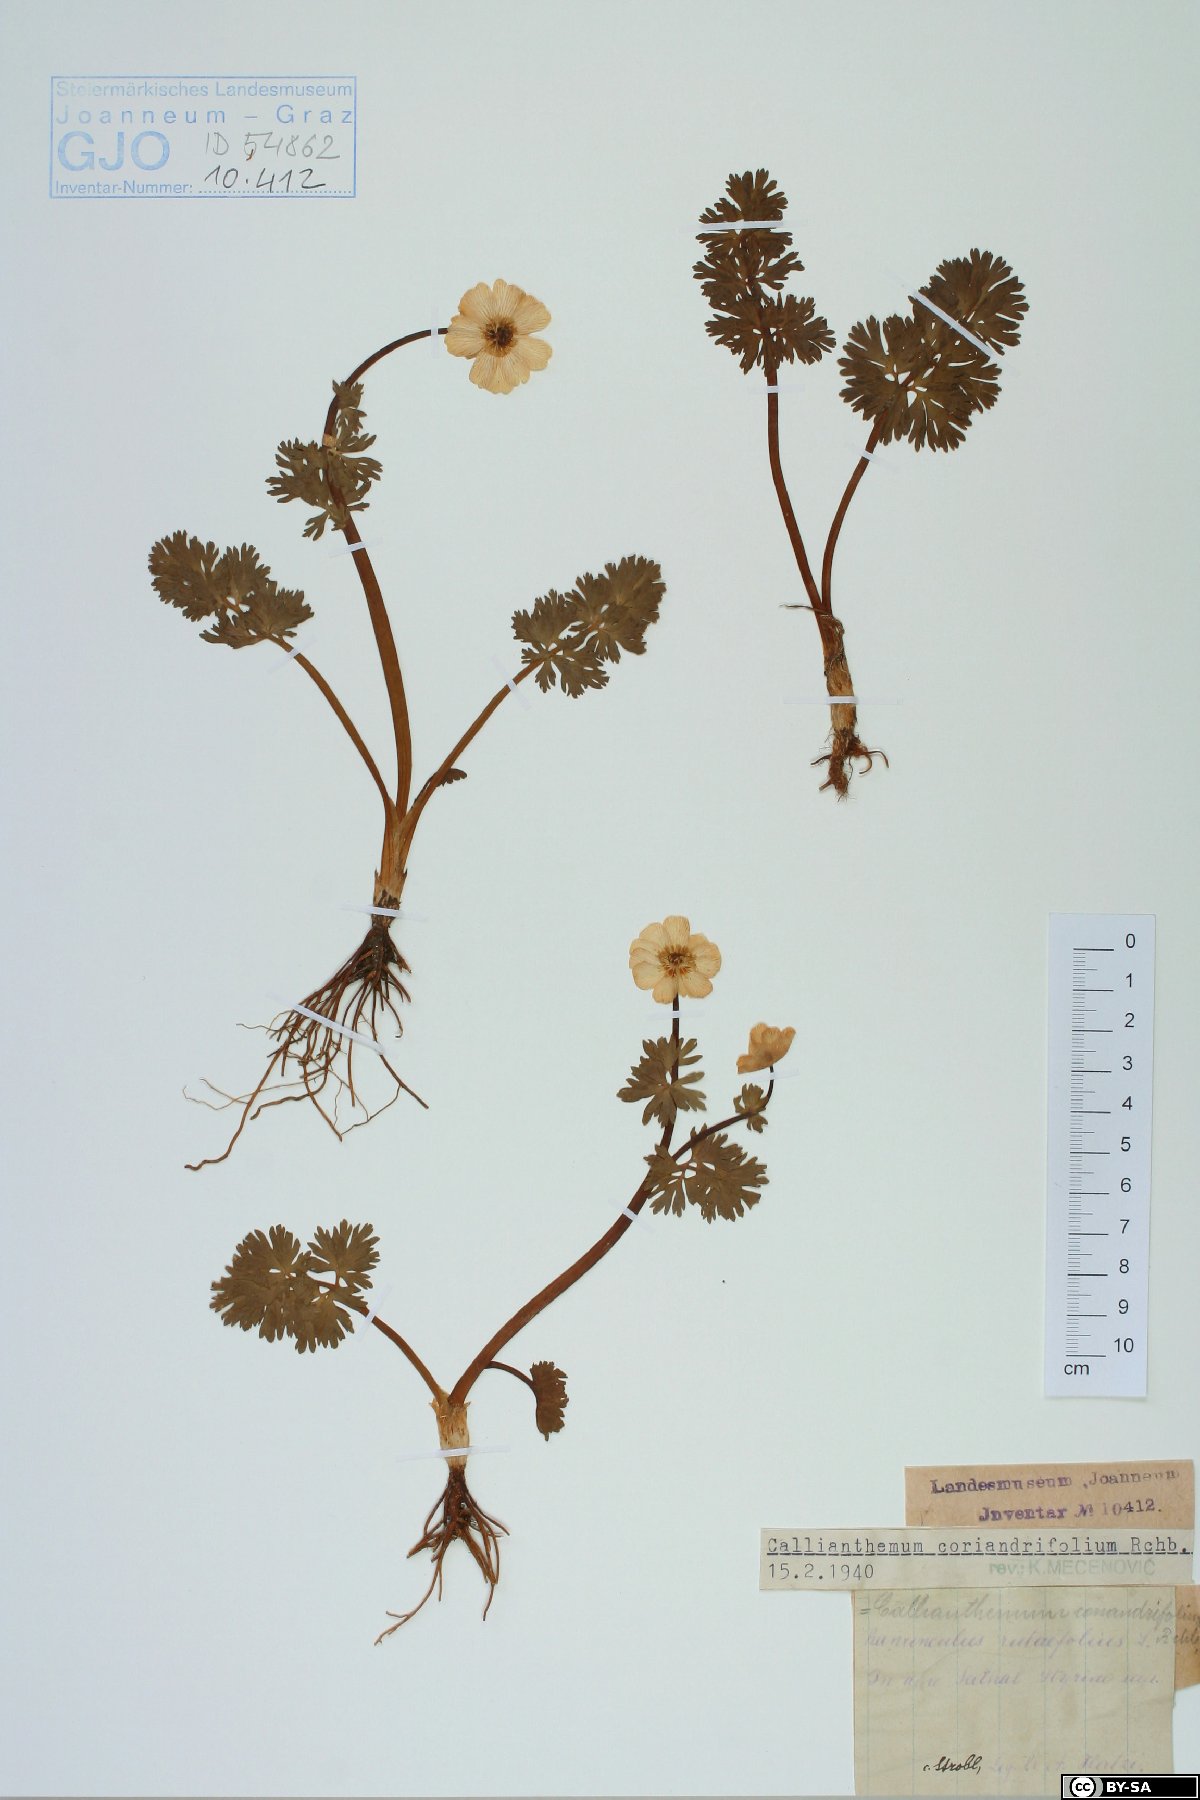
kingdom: Plantae
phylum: Tracheophyta
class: Magnoliopsida
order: Ranunculales
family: Ranunculaceae
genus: Callianthemum
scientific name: Callianthemum coriandrifolium
